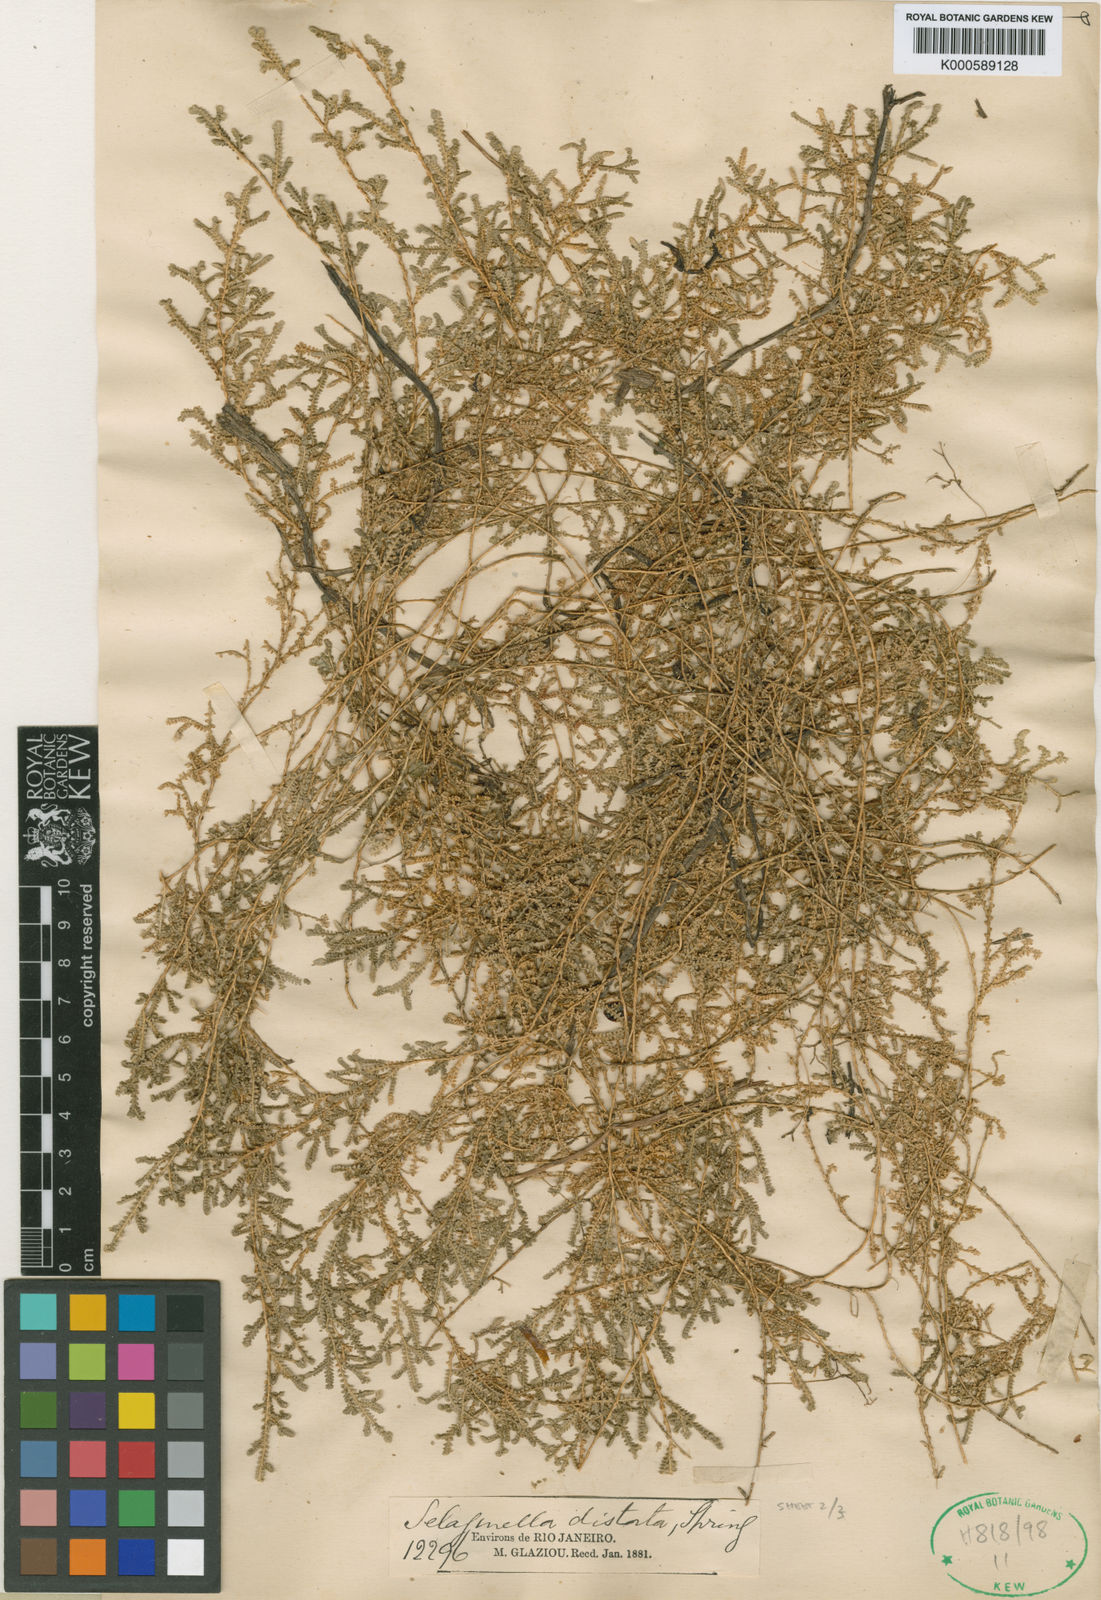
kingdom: Plantae
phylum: Tracheophyta
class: Lycopodiopsida
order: Selaginellales
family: Selaginellaceae
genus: Selaginella
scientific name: Selaginella marginata
